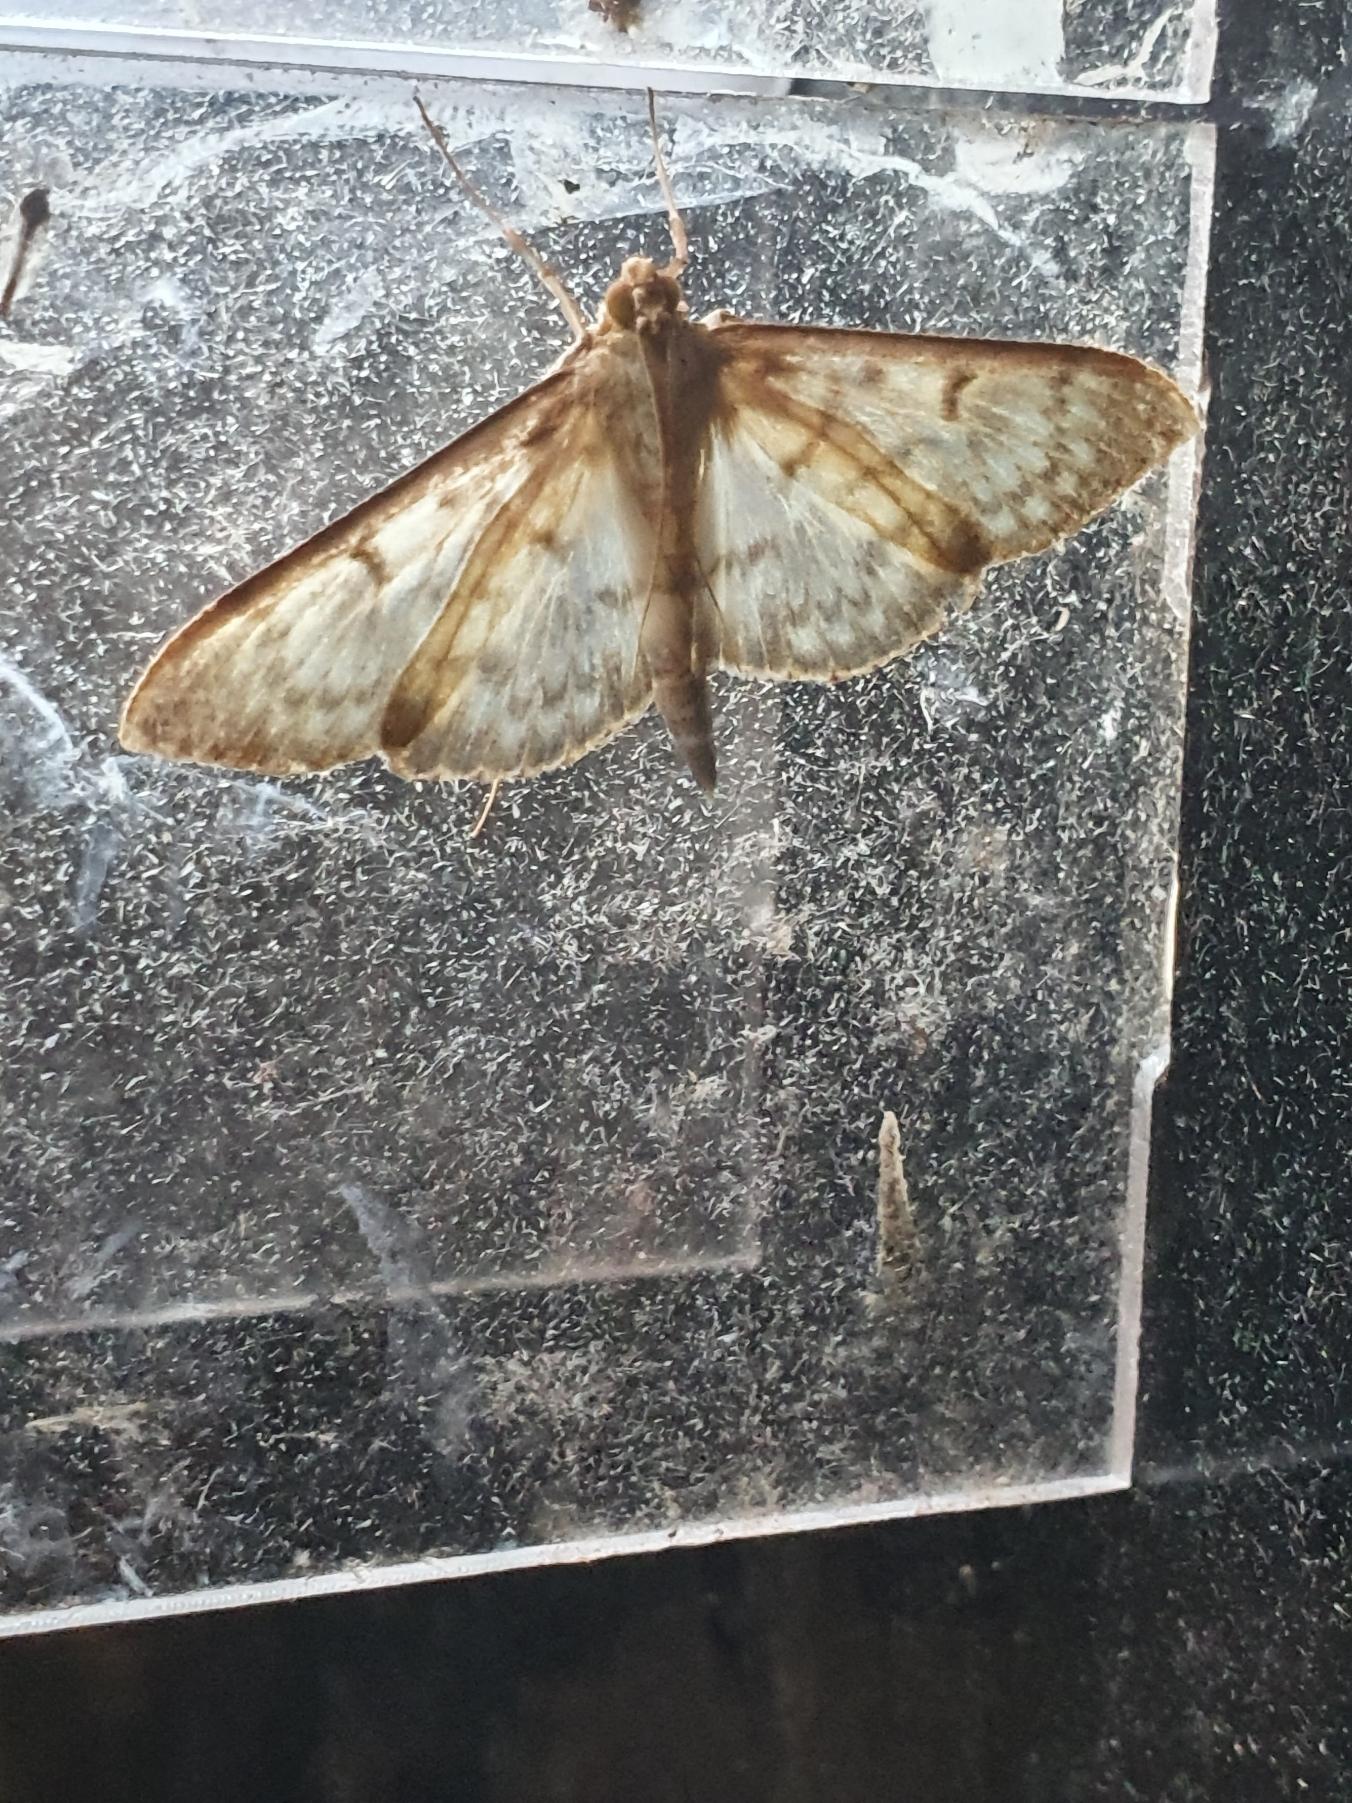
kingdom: Animalia
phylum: Arthropoda
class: Insecta
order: Lepidoptera
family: Crambidae
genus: Patania
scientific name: Patania ruralis
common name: Perlemorshalvmøl
